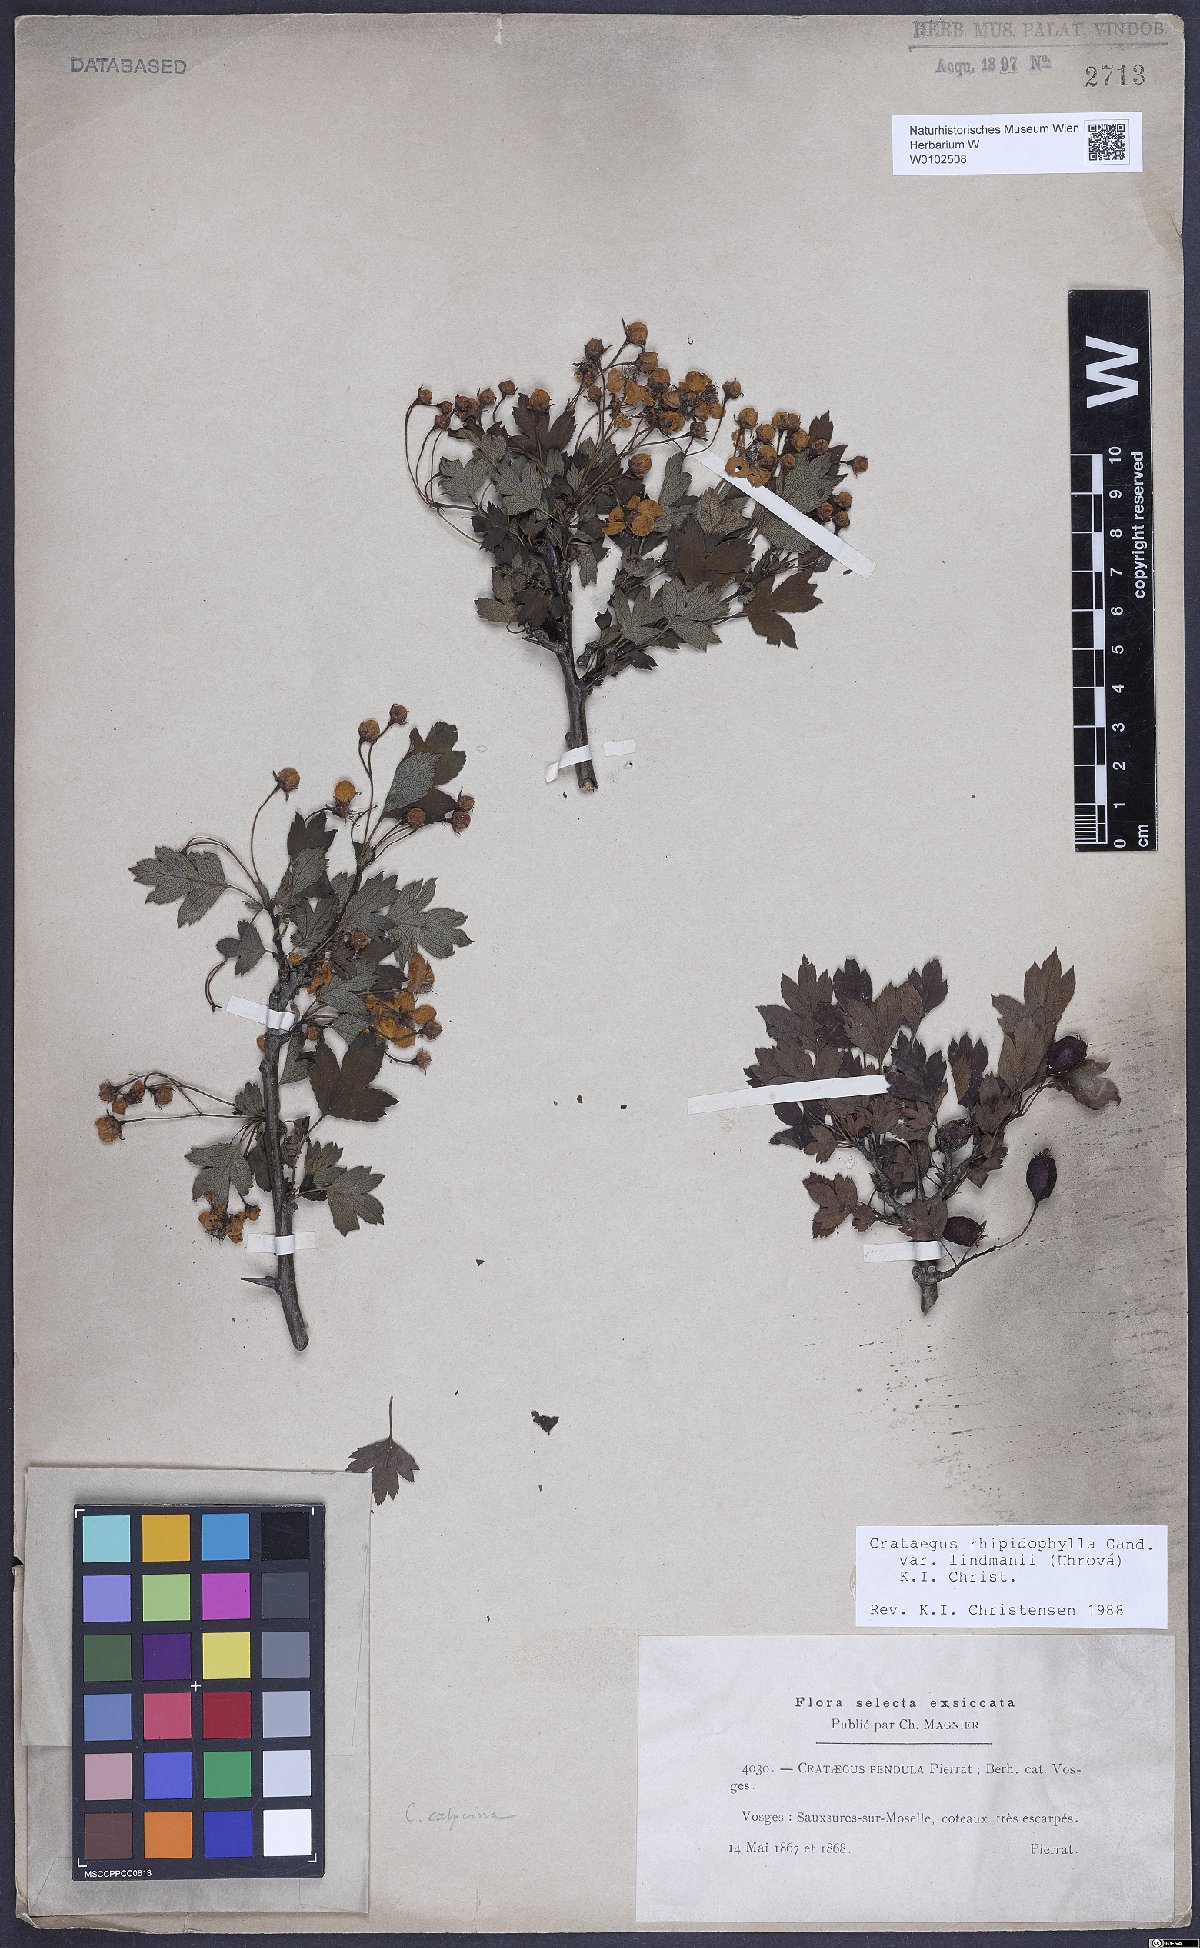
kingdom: Plantae
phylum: Tracheophyta
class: Magnoliopsida
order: Rosales
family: Rosaceae
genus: Crataegus
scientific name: Crataegus lindmanii
